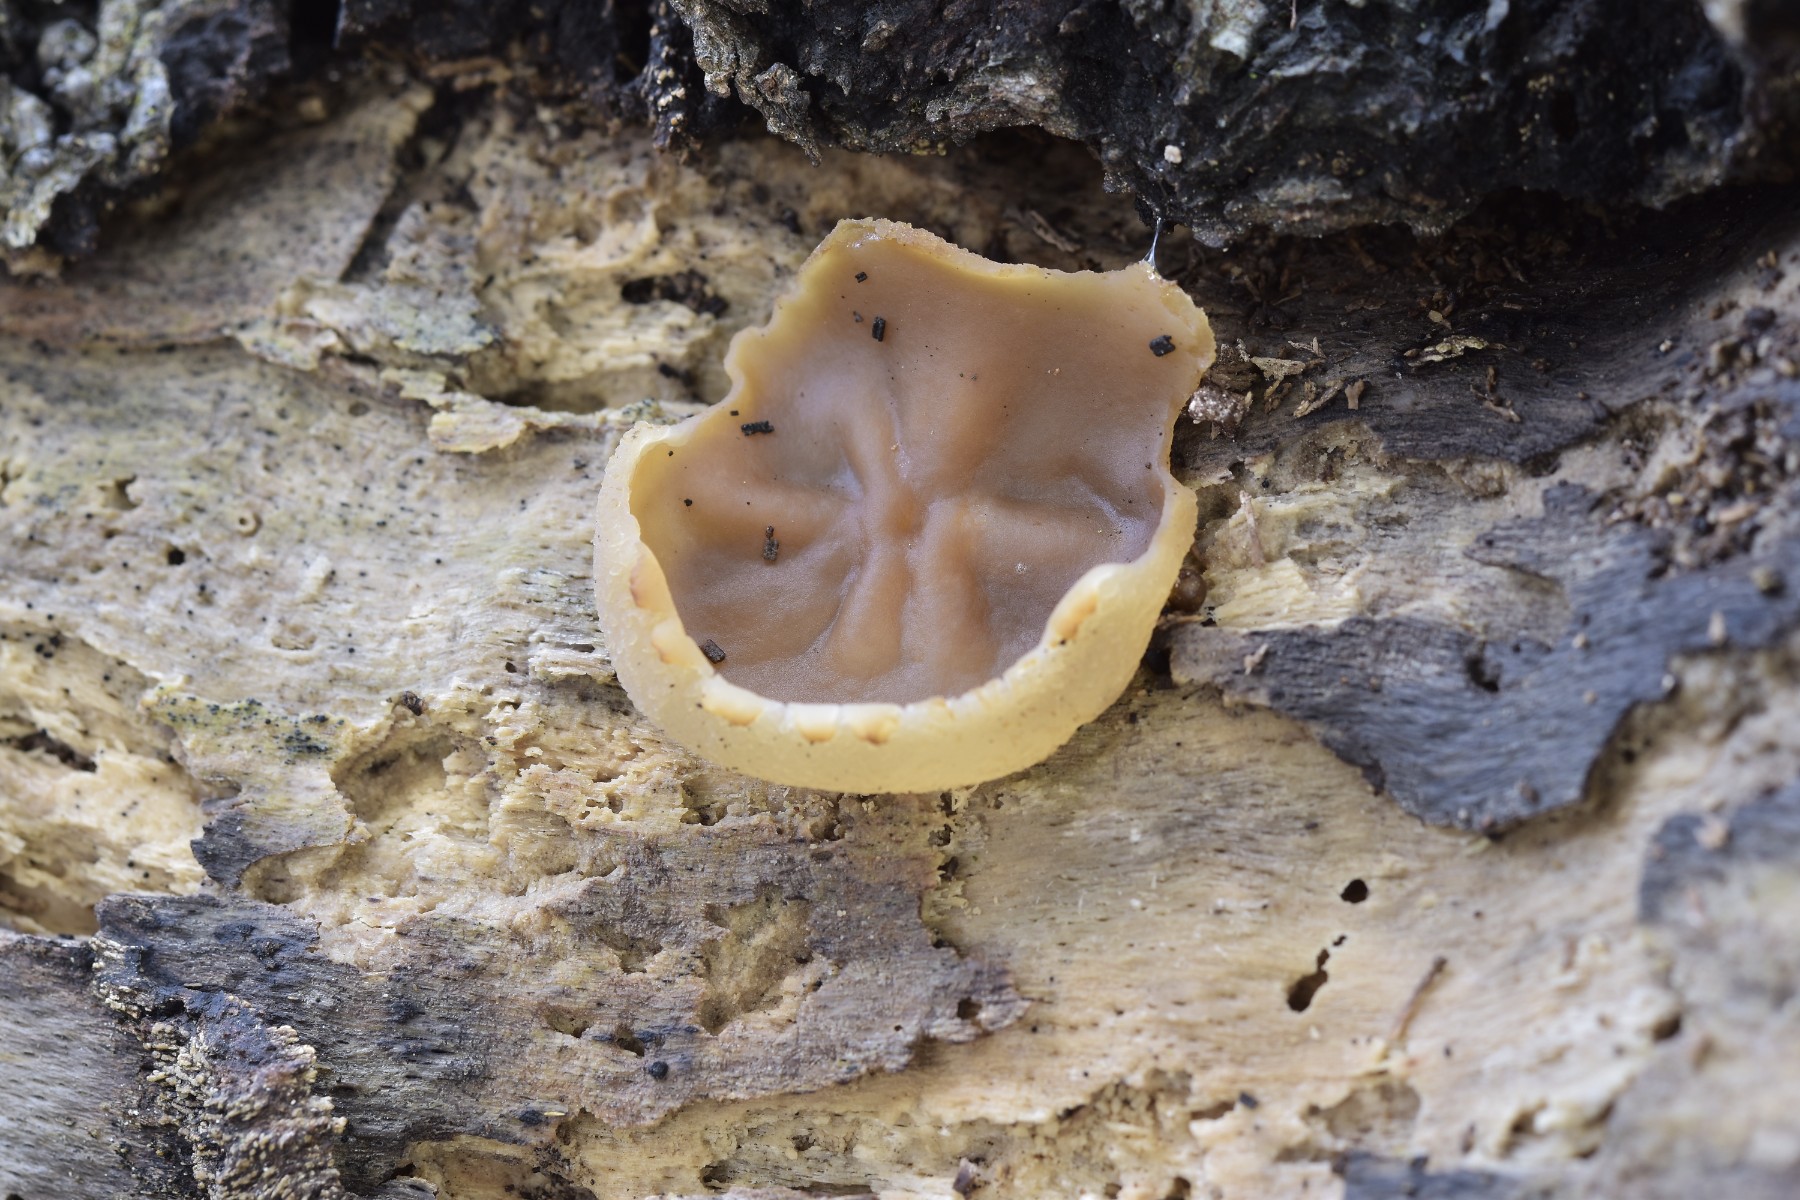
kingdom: Fungi
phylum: Ascomycota
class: Pezizomycetes
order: Pezizales
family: Pezizaceae
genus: Peziza
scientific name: Peziza varia
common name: Ved-bægersvamp
